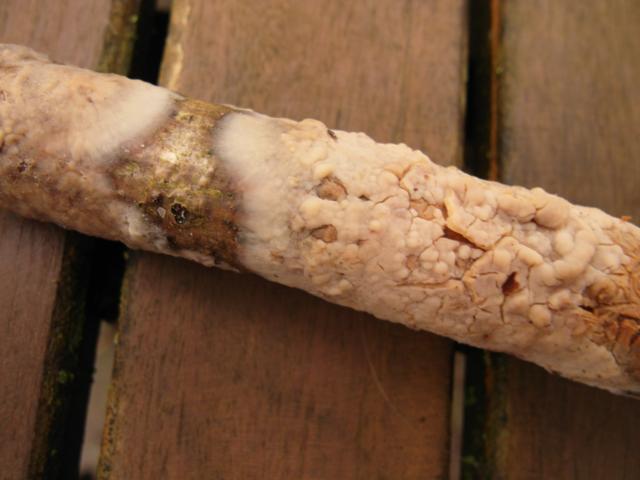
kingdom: Fungi
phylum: Basidiomycota
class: Agaricomycetes
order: Agaricales
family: Radulomycetaceae
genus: Radulomyces
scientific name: Radulomyces confluens
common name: glat naftalinskind
